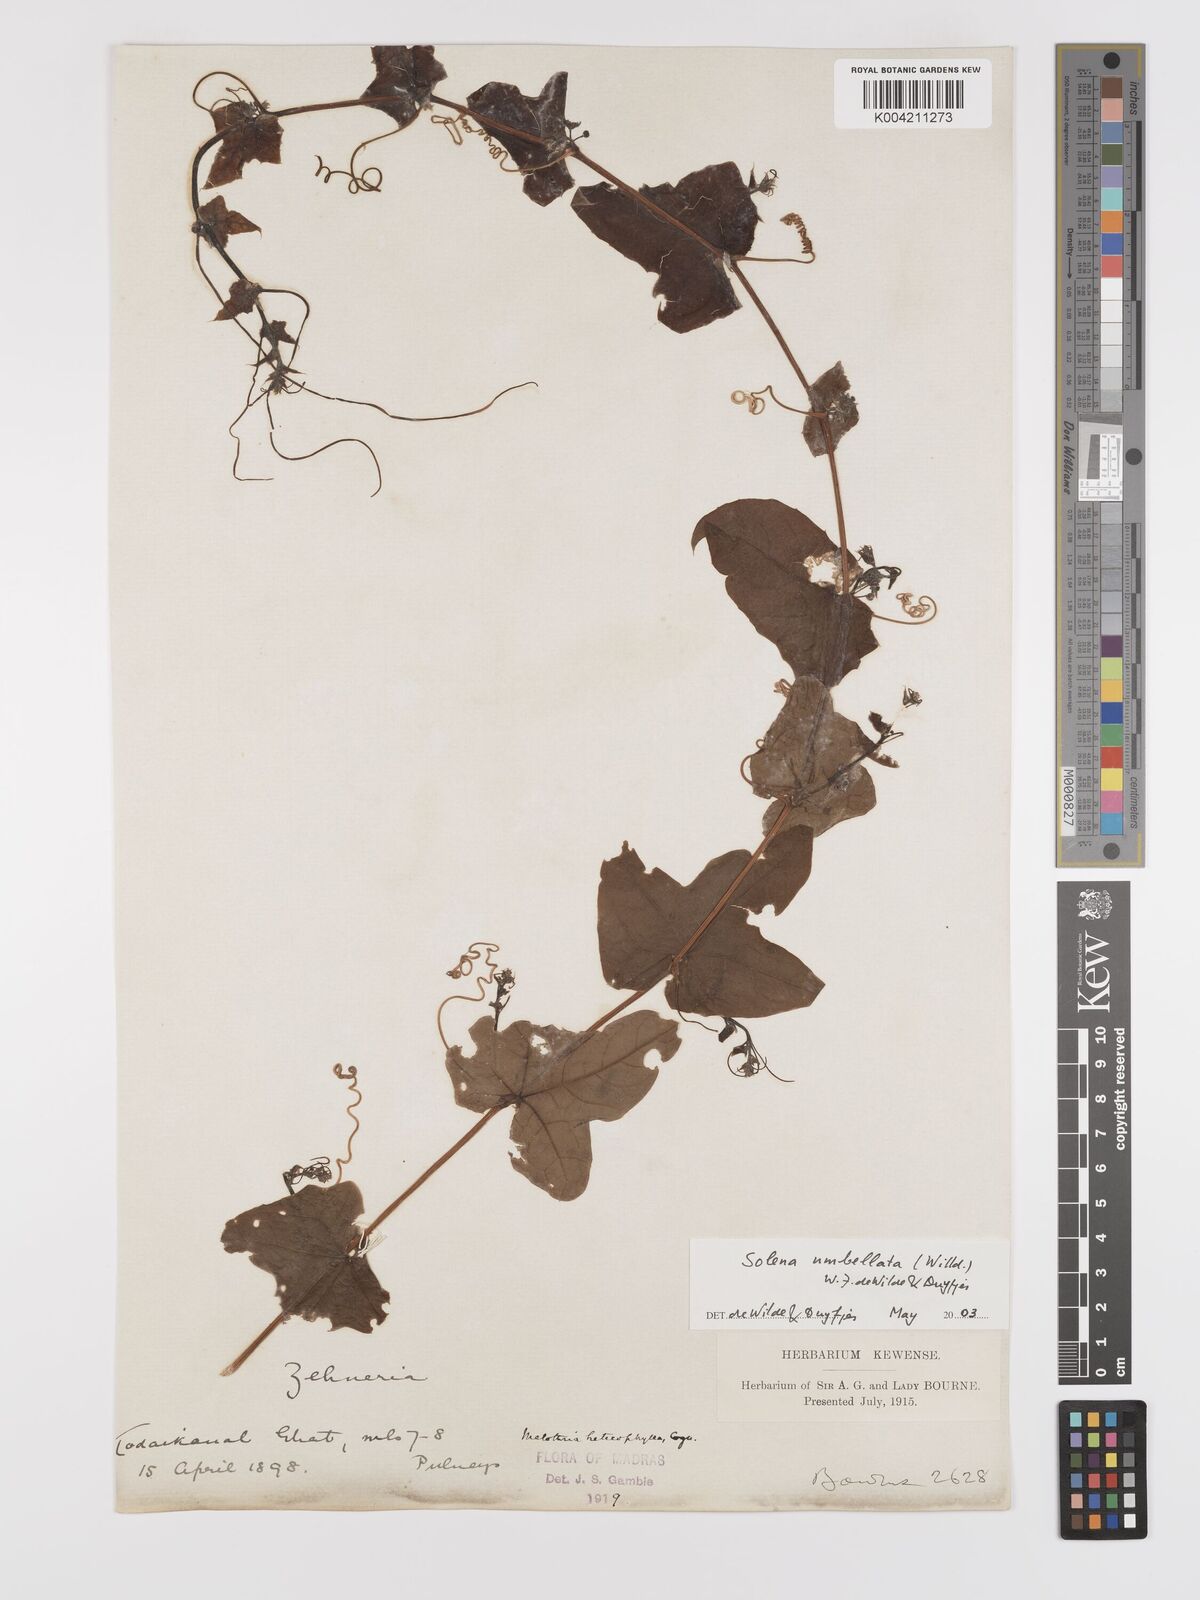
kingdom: Plantae
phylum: Tracheophyta
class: Magnoliopsida
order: Cucurbitales
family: Cucurbitaceae
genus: Solena
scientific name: Solena amplexicaulis
